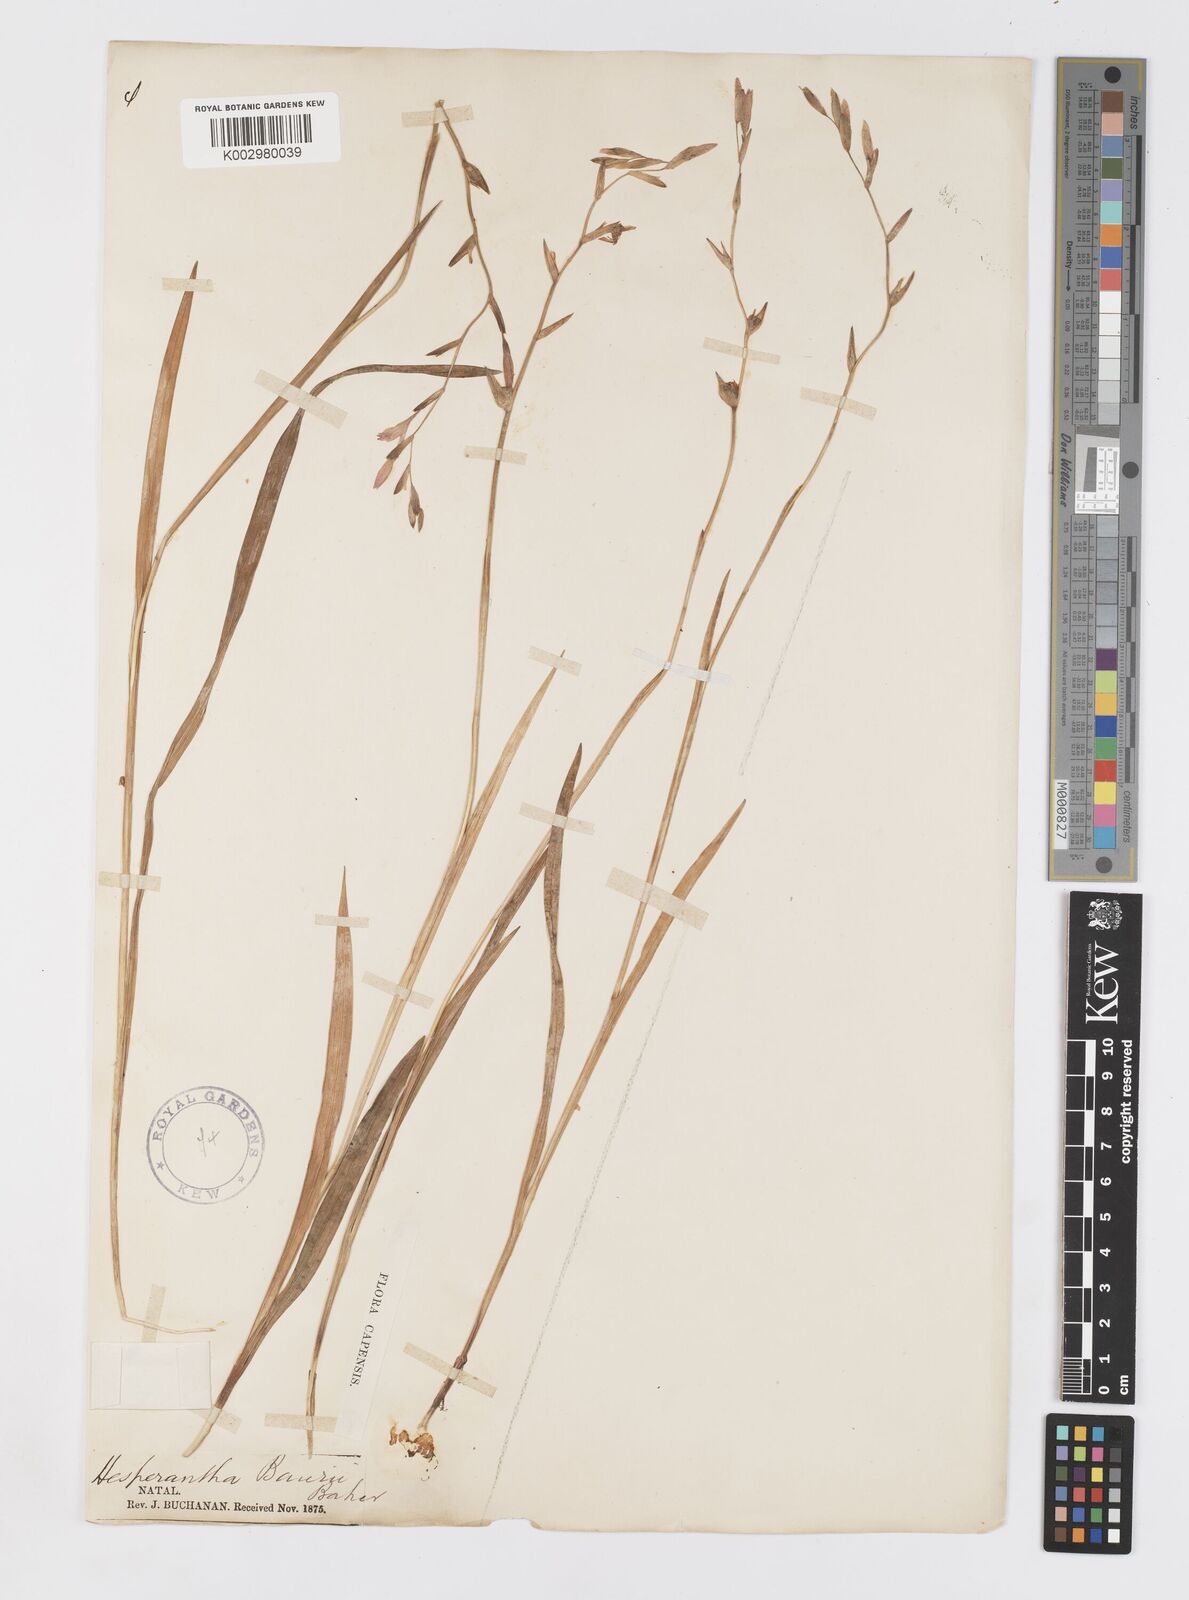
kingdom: Plantae
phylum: Tracheophyta
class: Liliopsida
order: Asparagales
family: Iridaceae
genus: Hesperantha
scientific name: Hesperantha baurii
